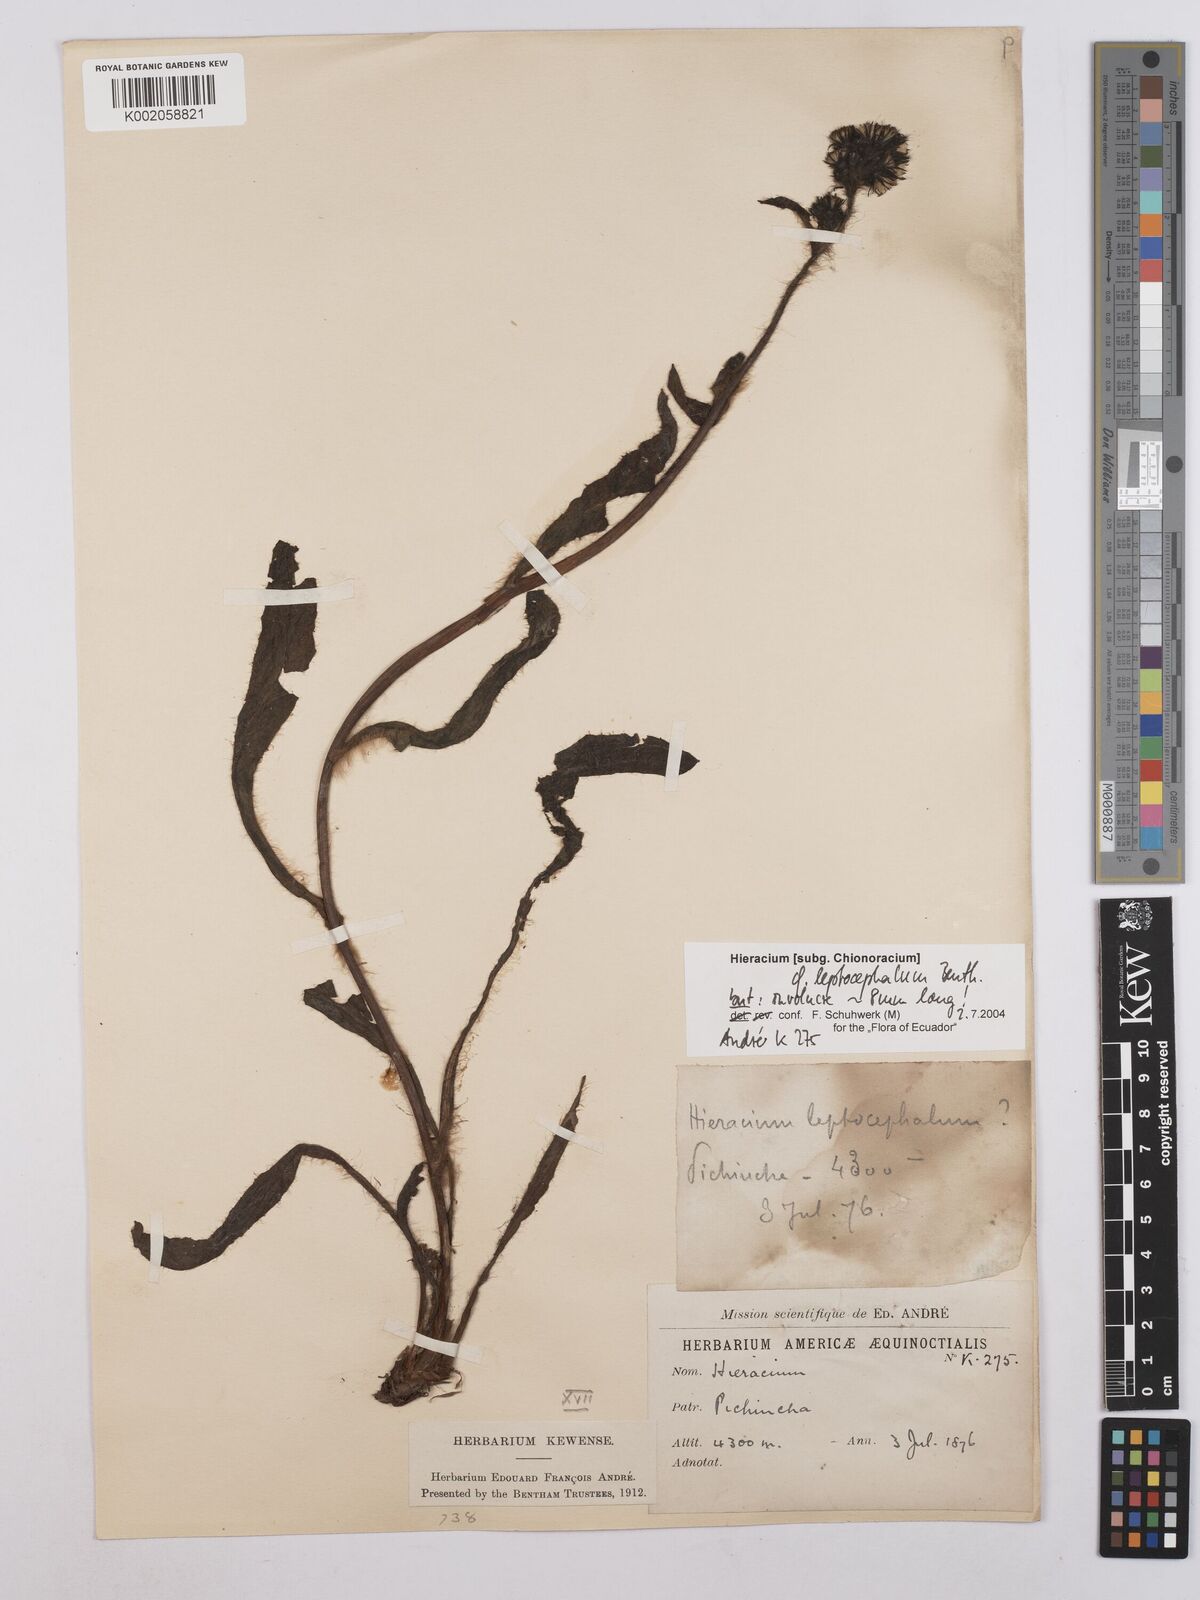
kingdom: Plantae
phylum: Tracheophyta
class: Magnoliopsida
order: Asterales
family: Asteraceae
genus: Hieracium
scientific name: Hieracium leptocephalum
